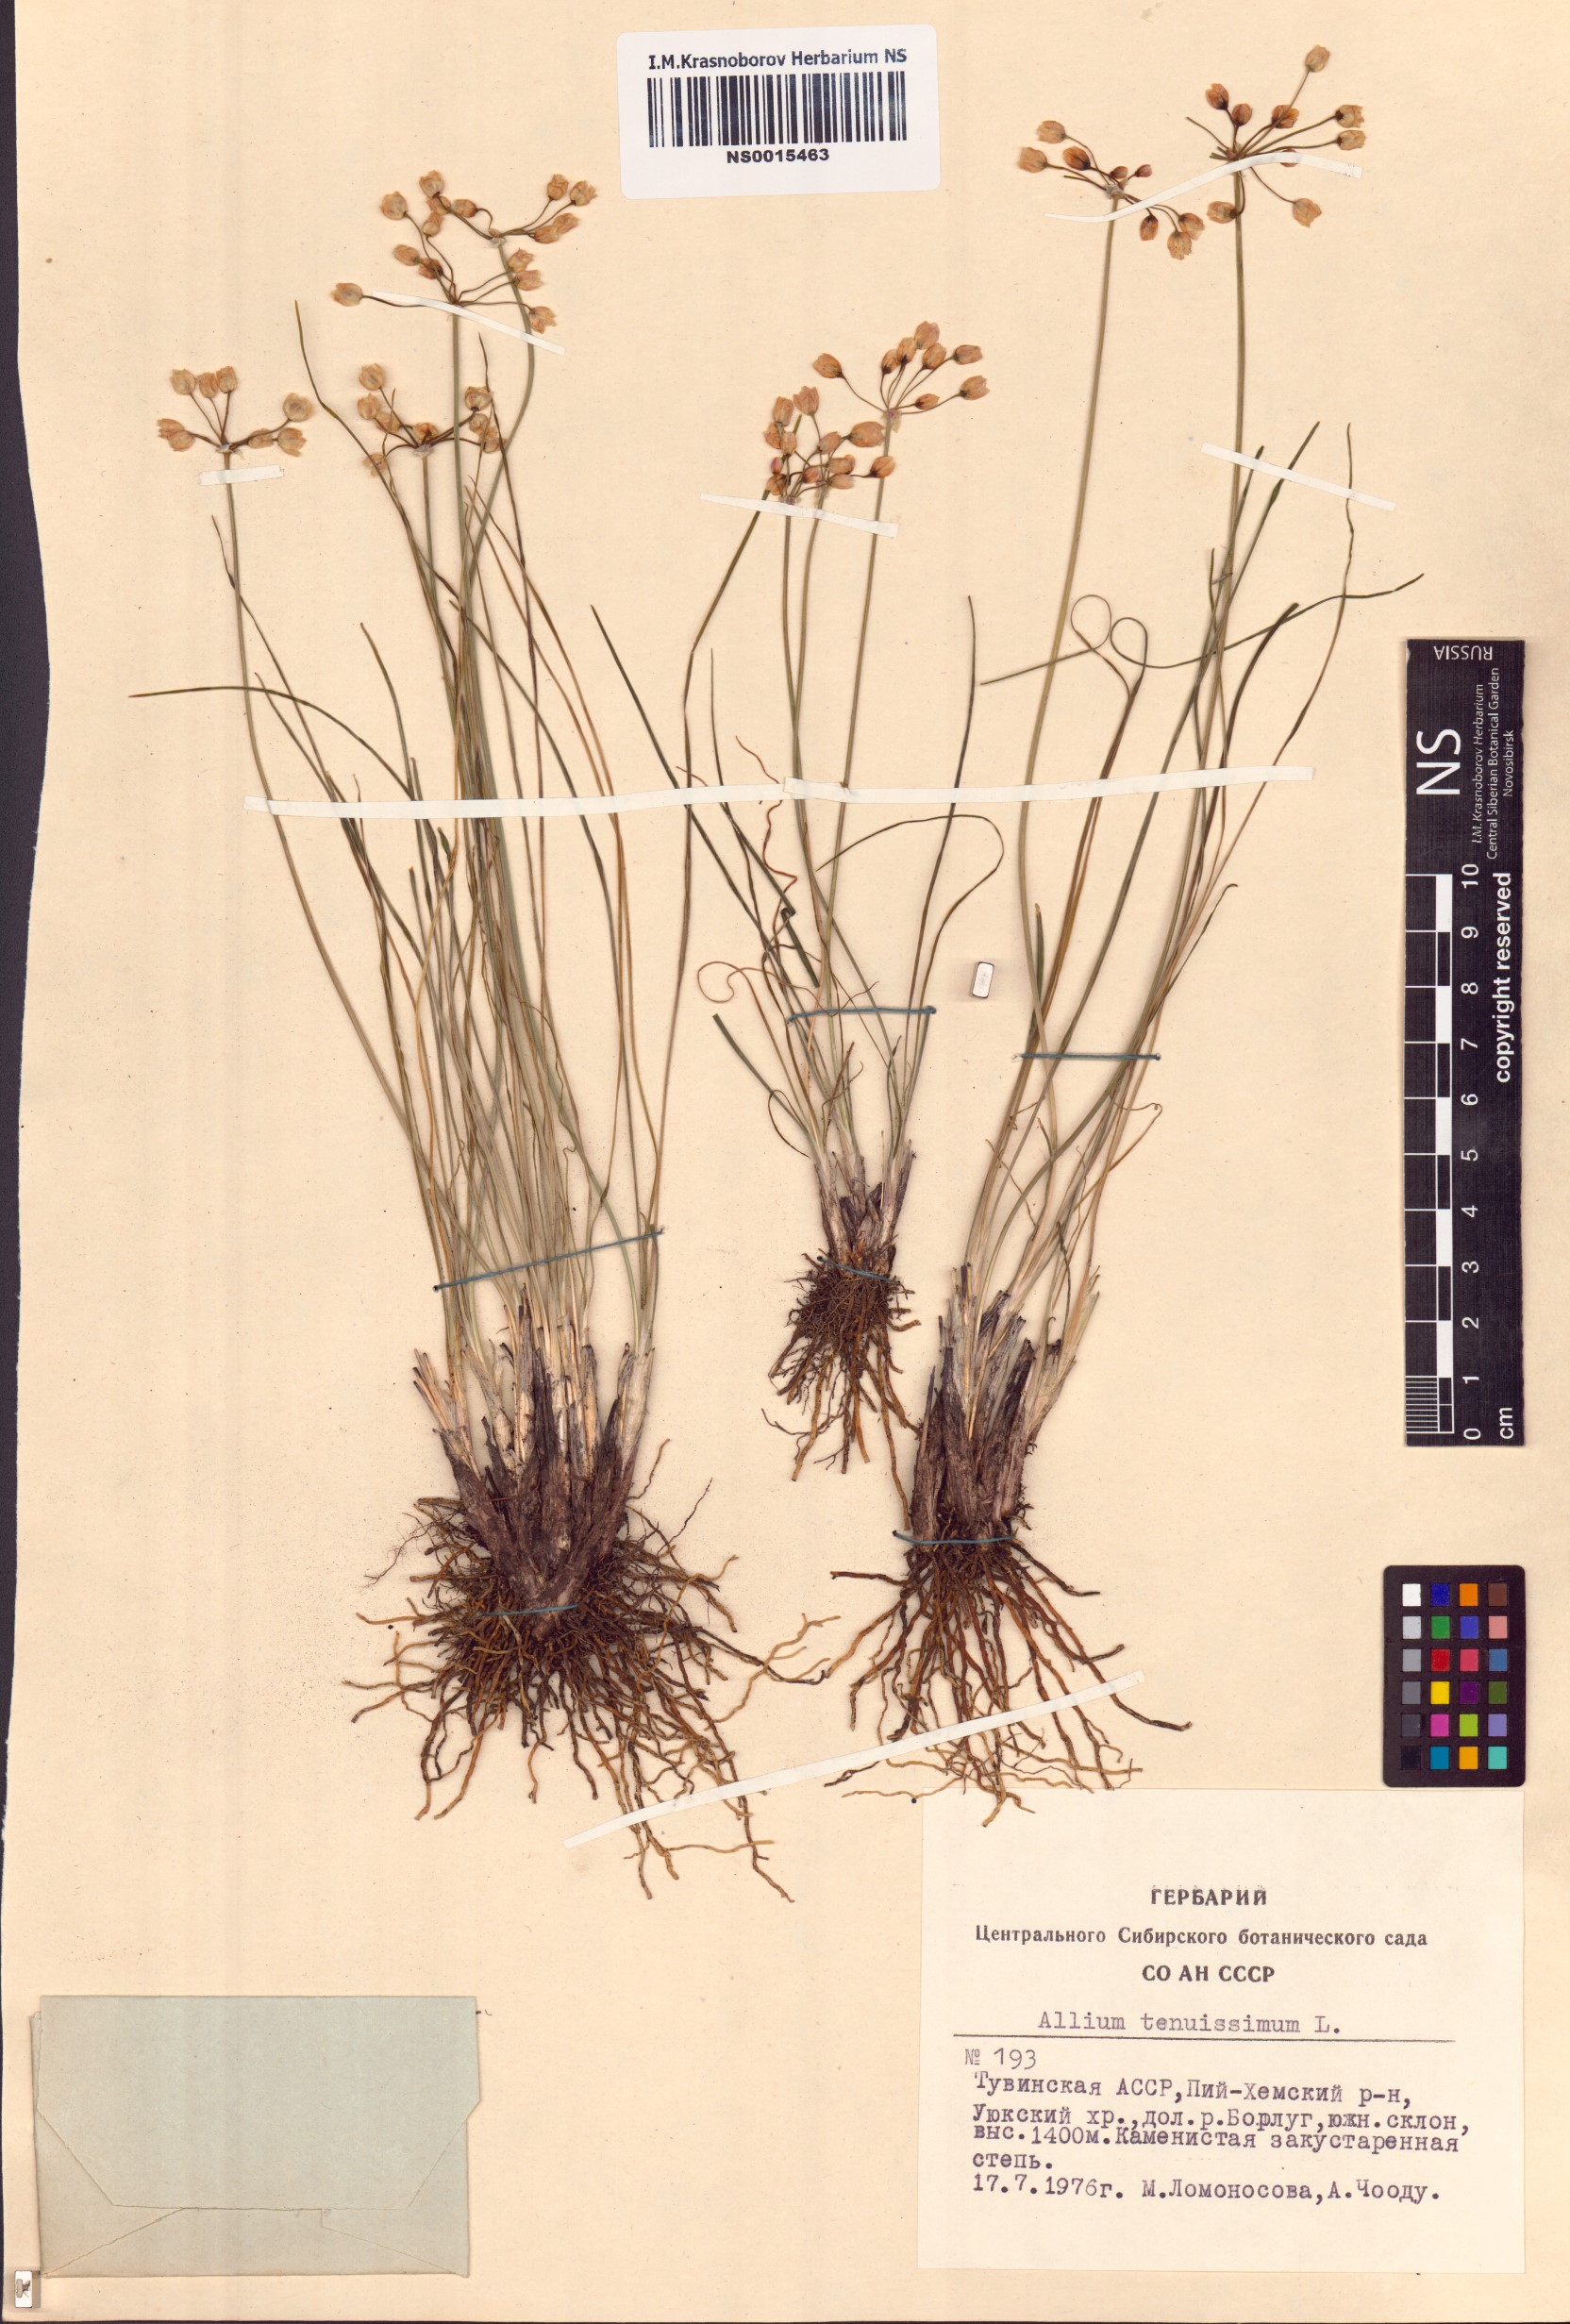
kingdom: Plantae
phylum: Tracheophyta
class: Liliopsida
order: Asparagales
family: Amaryllidaceae
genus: Allium
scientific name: Allium tenuissimum
